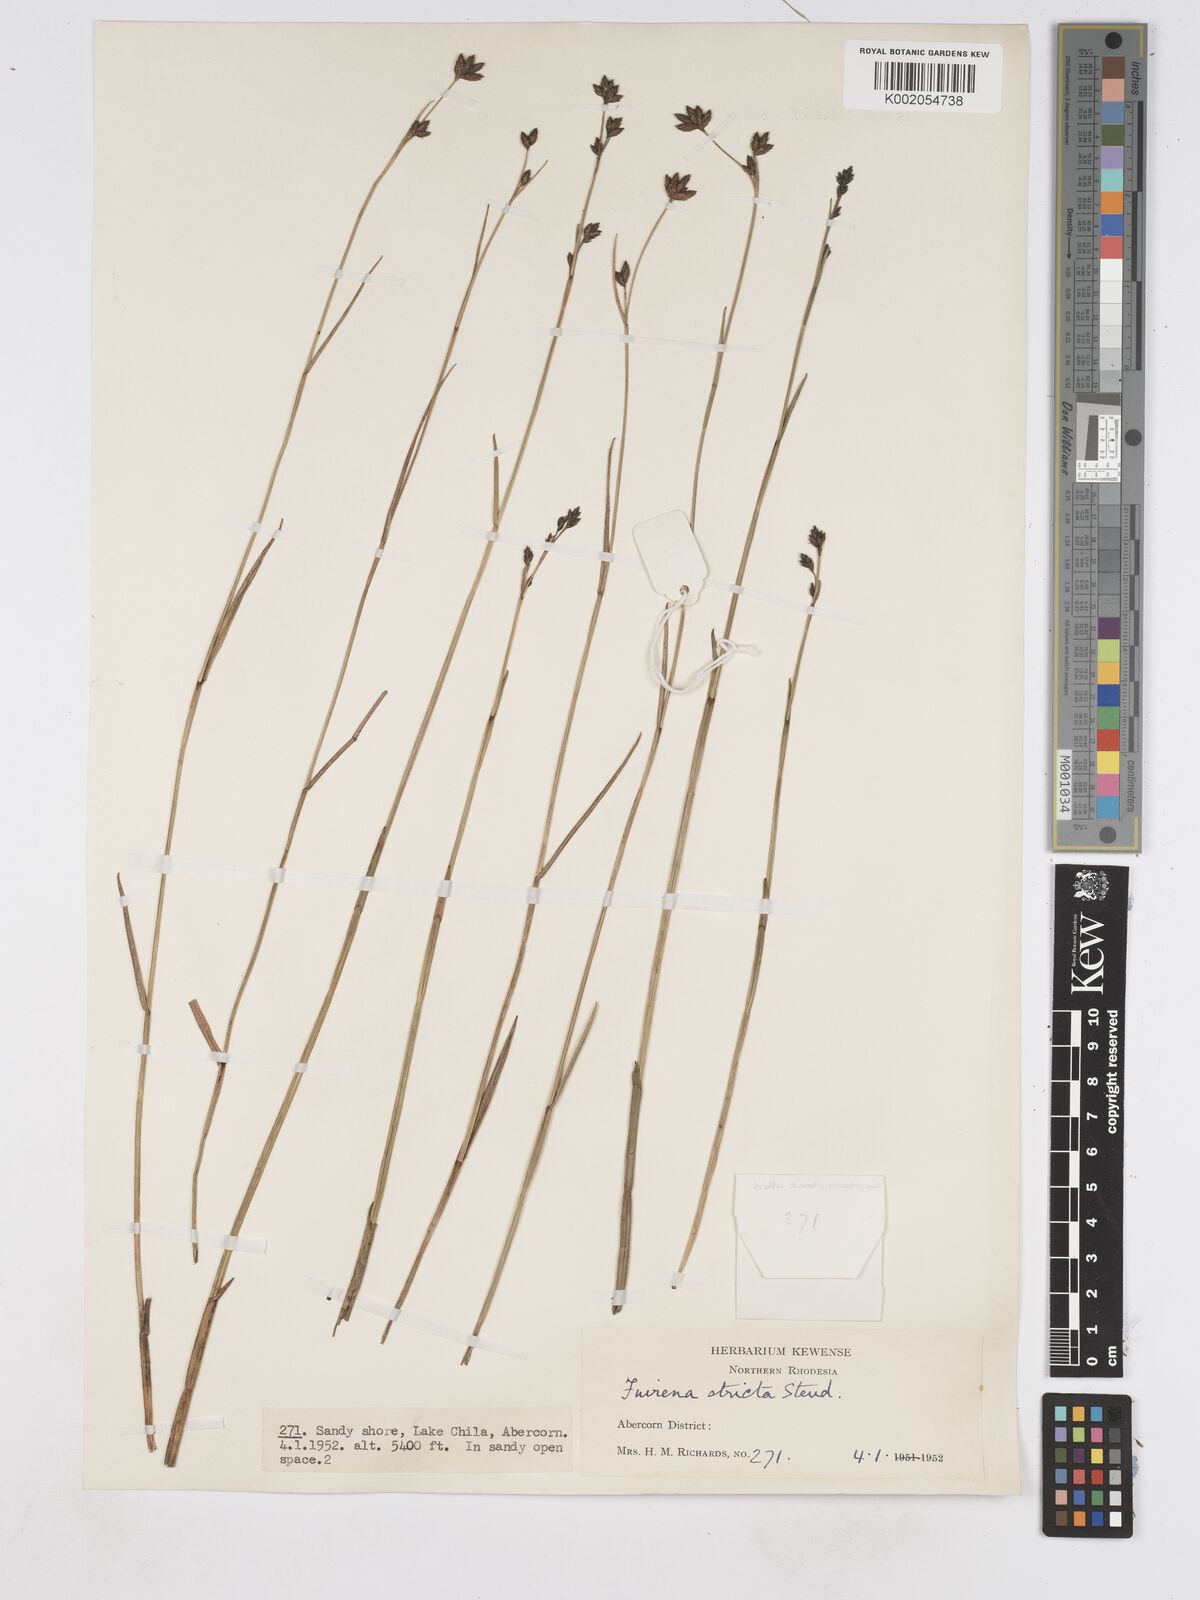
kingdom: Plantae
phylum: Tracheophyta
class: Liliopsida
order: Poales
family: Cyperaceae
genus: Fuirena
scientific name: Fuirena stricta
